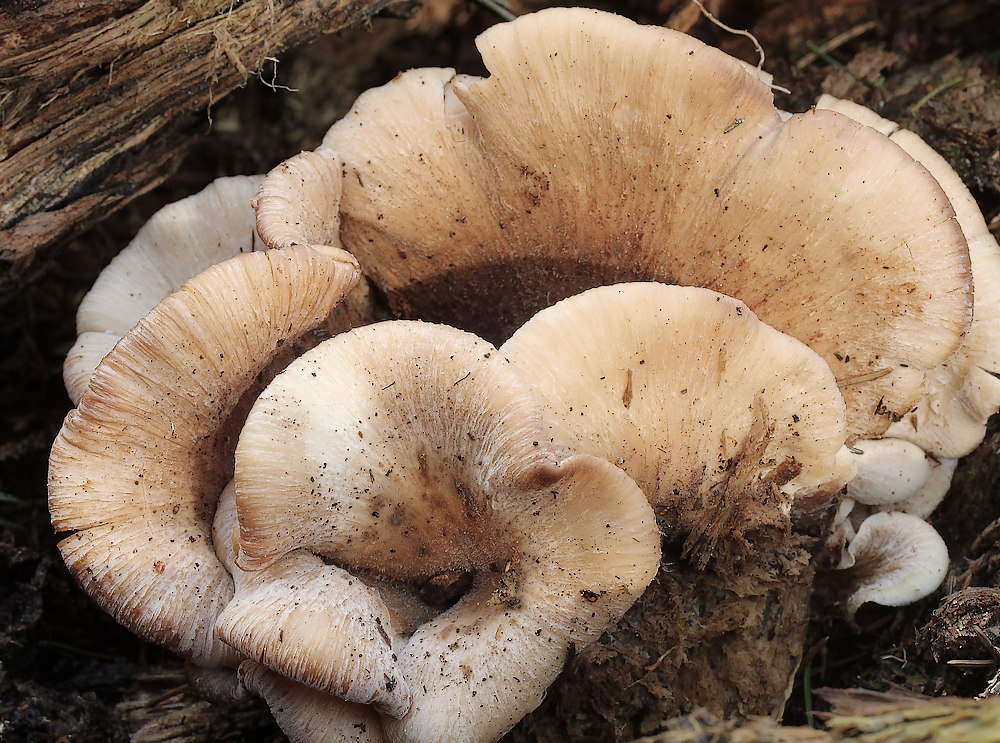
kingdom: Fungi
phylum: Basidiomycota
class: Agaricomycetes
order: Russulales
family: Auriscalpiaceae
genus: Lentinellus
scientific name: Lentinellus ursinus
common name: børstehåret savbladhat
